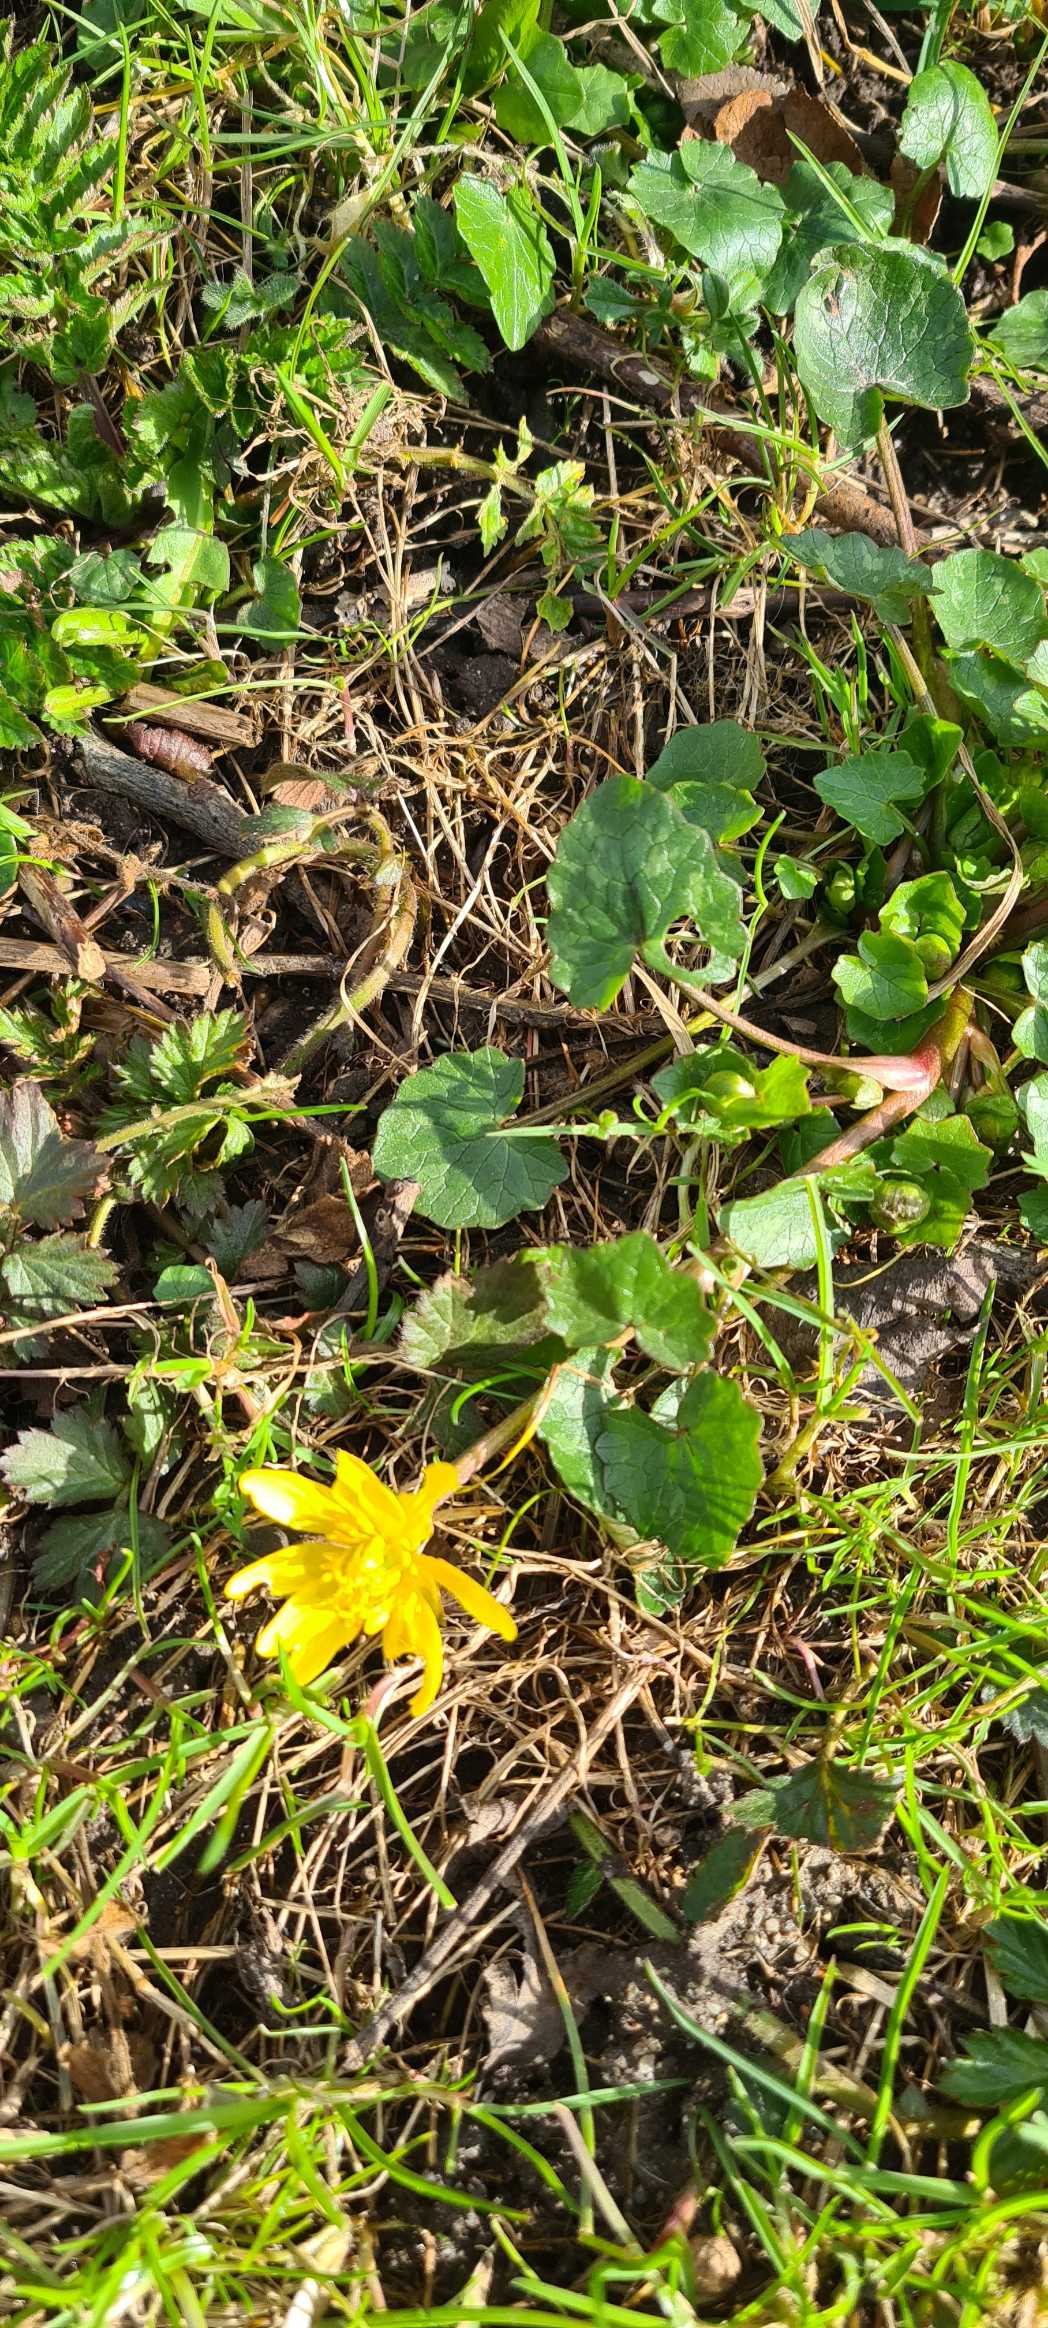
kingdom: Plantae
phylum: Tracheophyta
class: Magnoliopsida
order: Ranunculales
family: Ranunculaceae
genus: Ficaria
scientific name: Ficaria verna
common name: Vorterod
